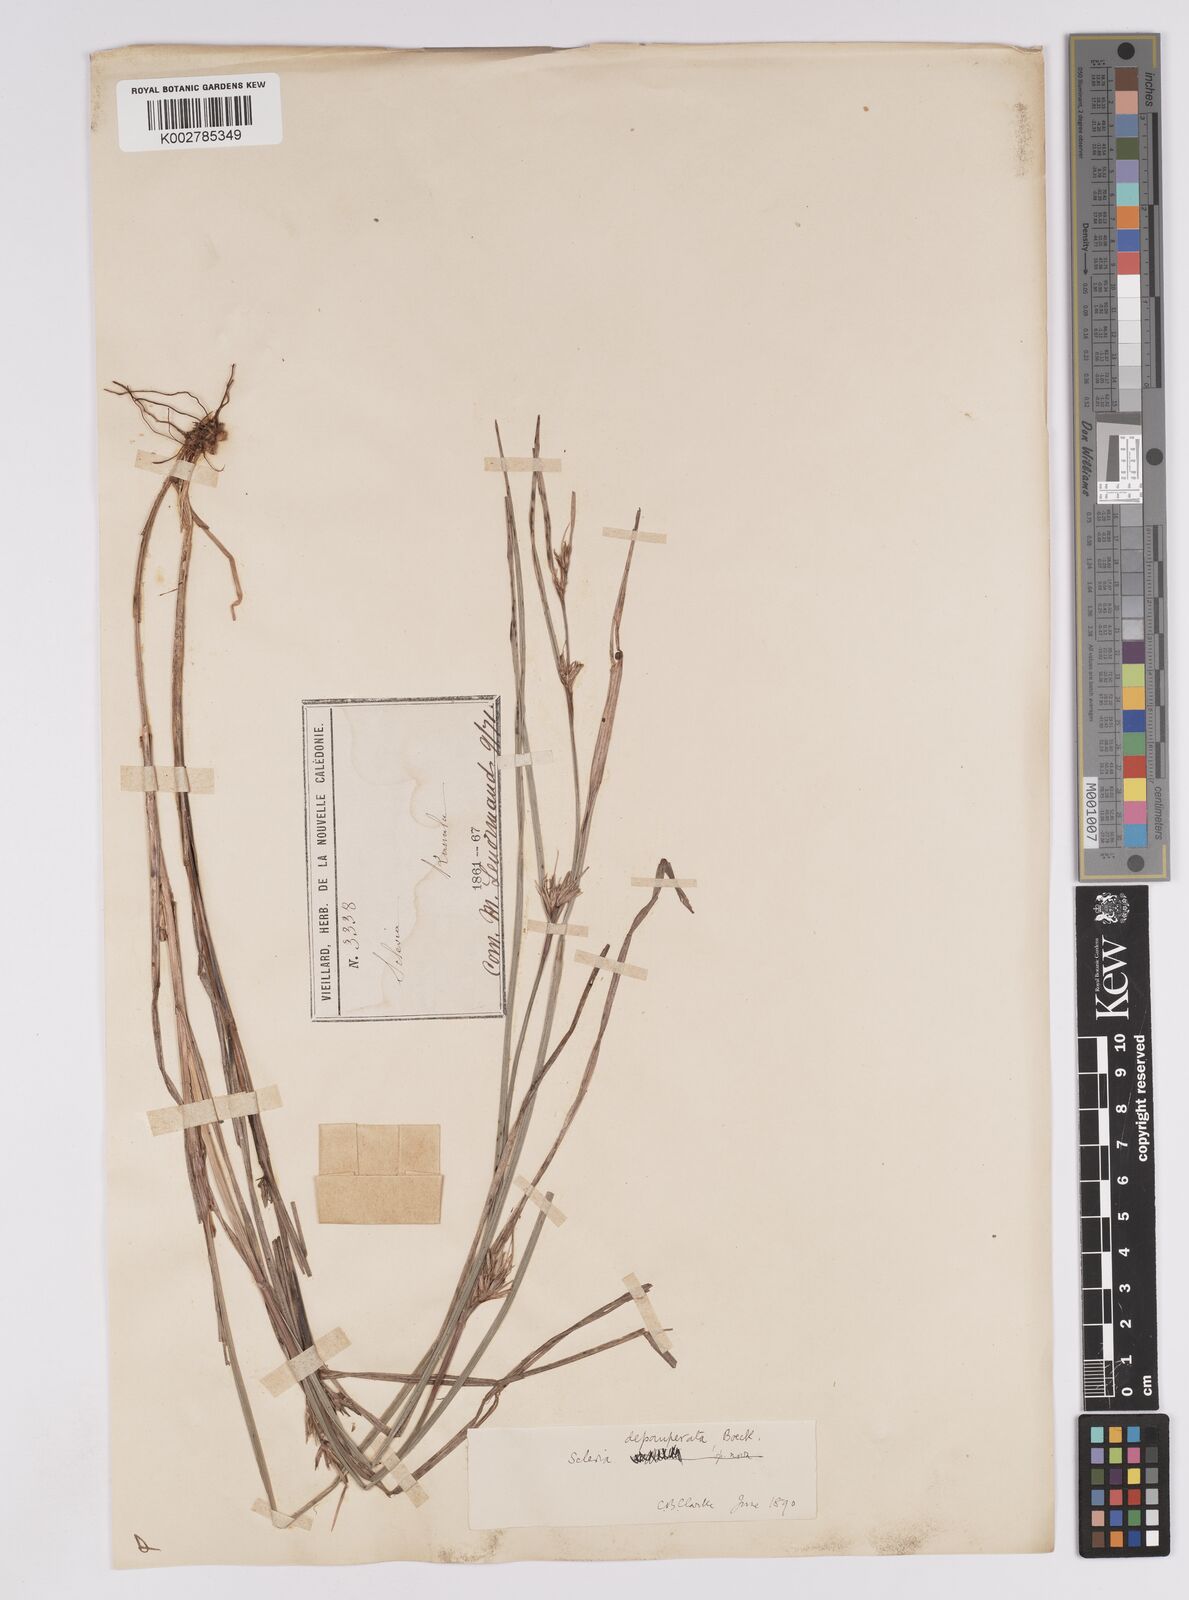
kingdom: Plantae
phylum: Tracheophyta
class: Liliopsida
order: Poales
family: Cyperaceae
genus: Scleria
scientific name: Scleria depauperata
